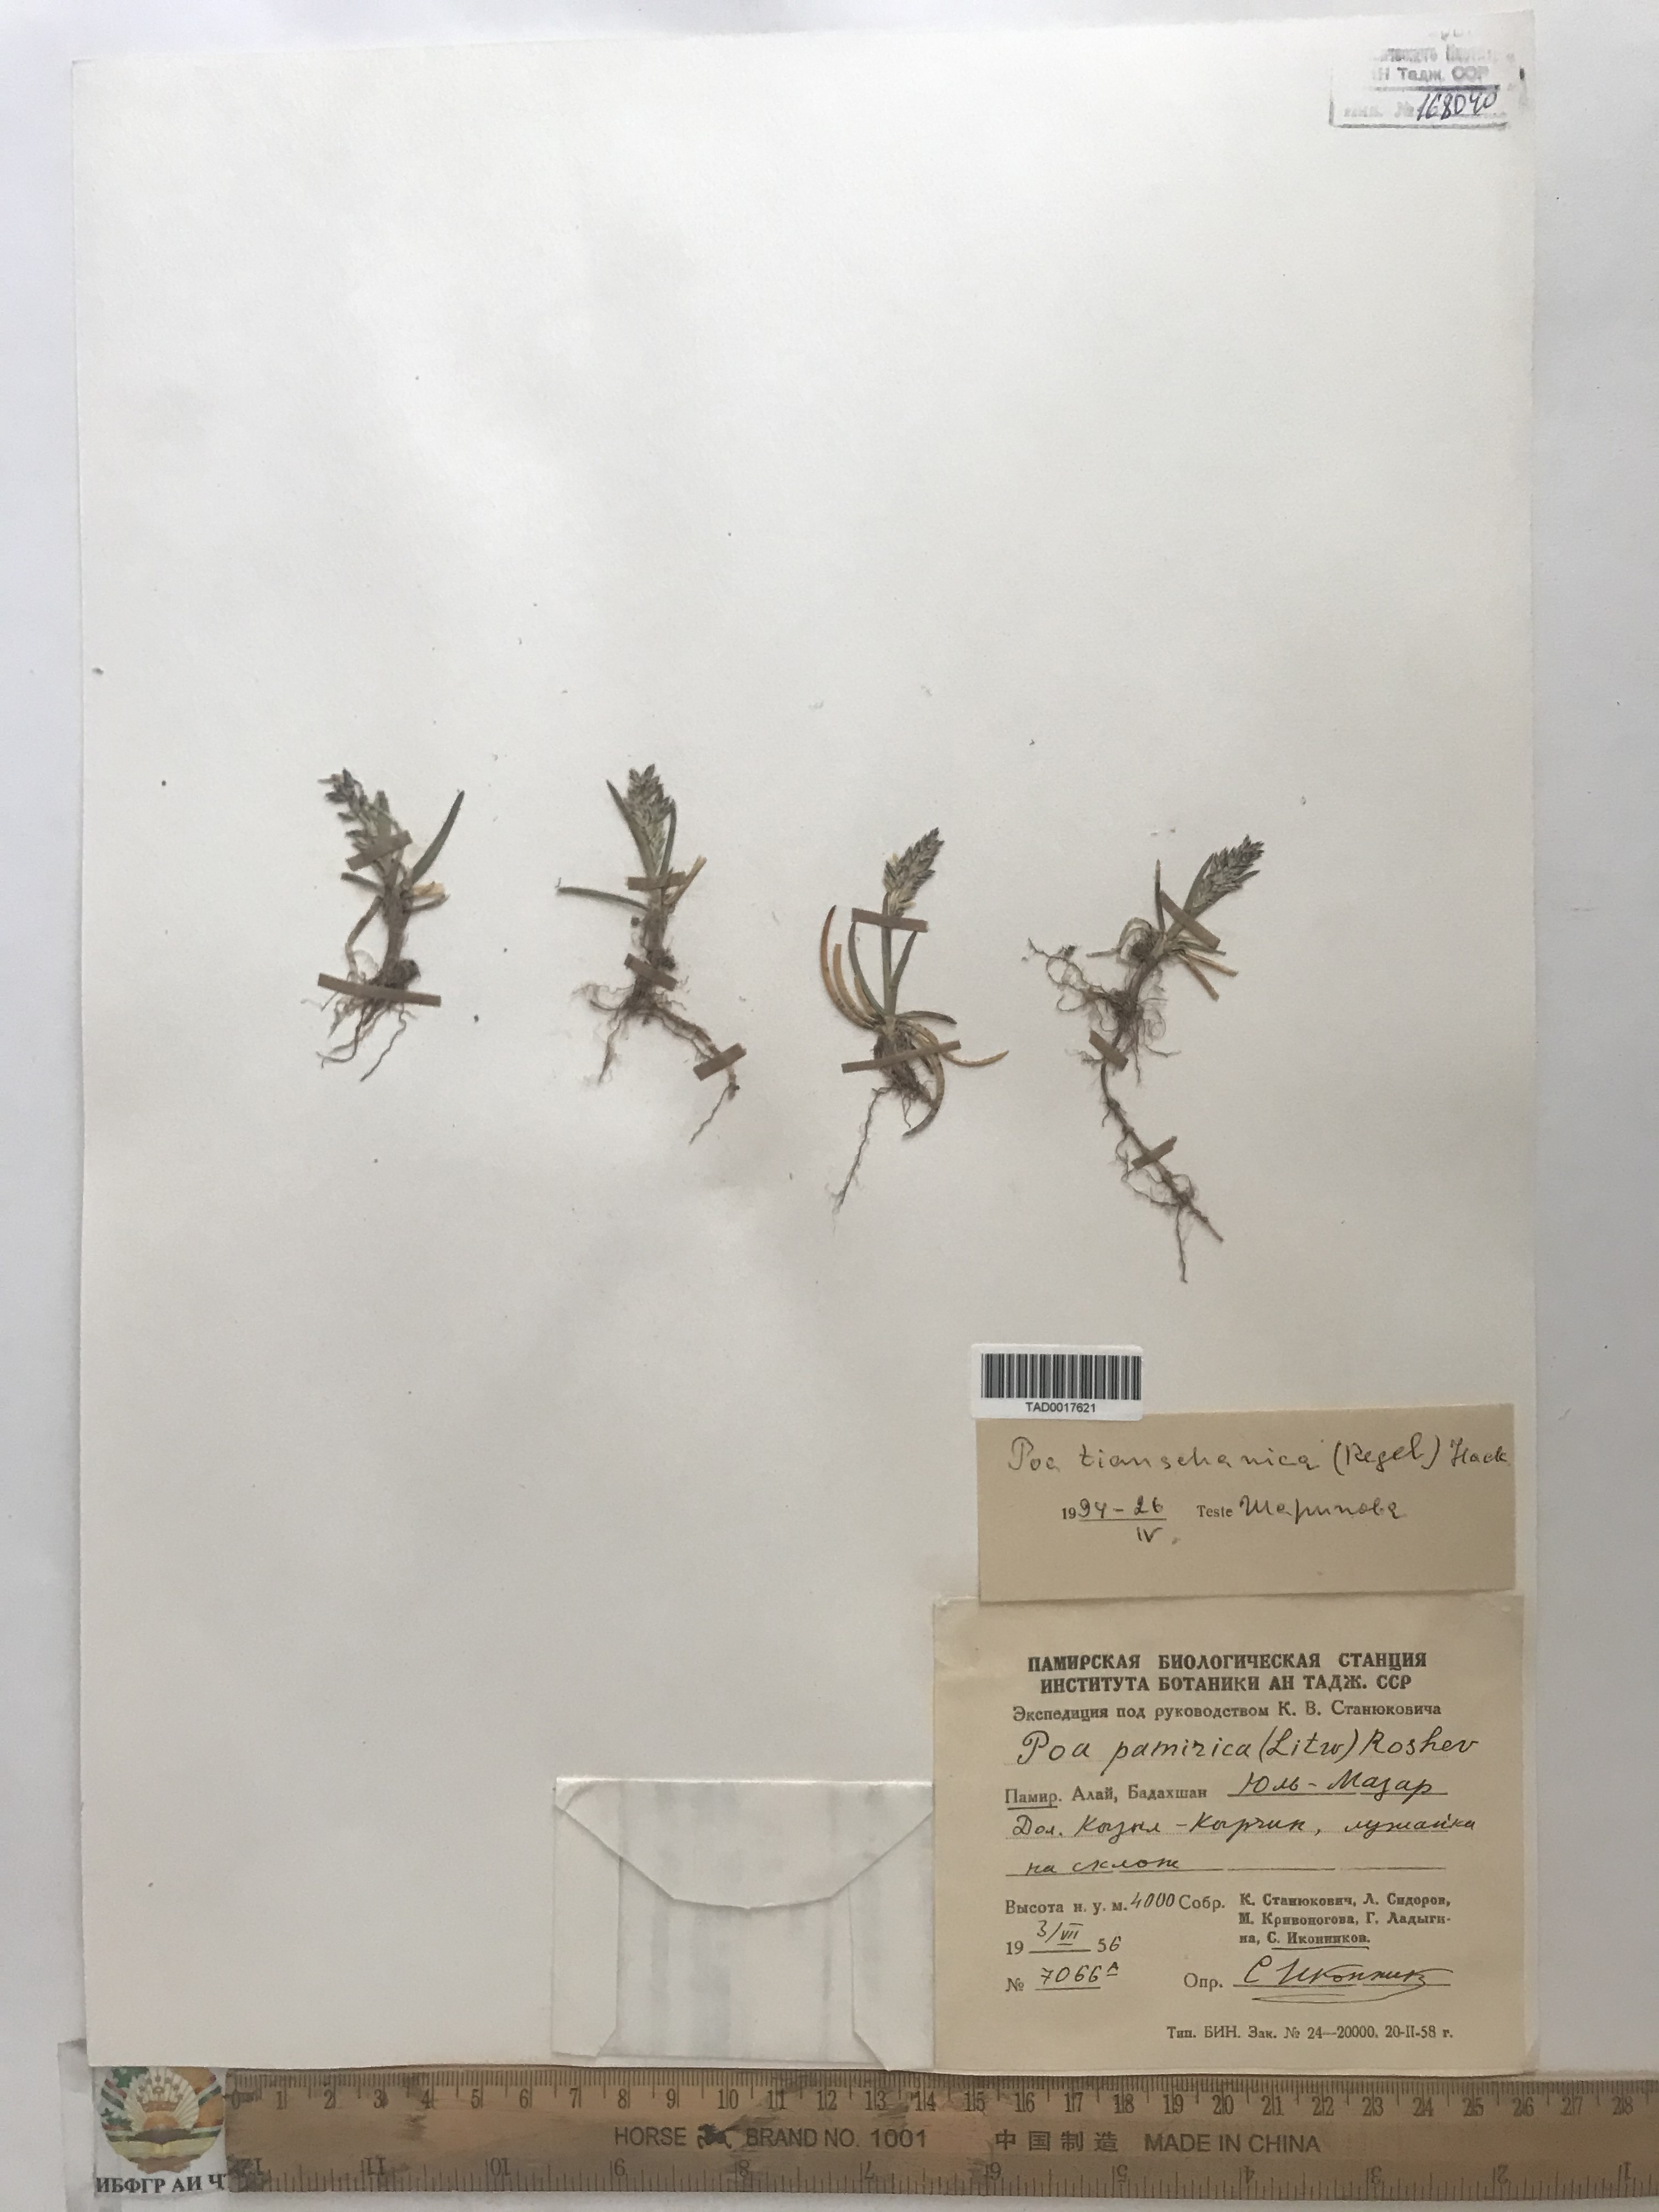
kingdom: Plantae
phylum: Tracheophyta
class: Liliopsida
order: Poales
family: Poaceae
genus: Poa
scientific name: Poa tianschanica
